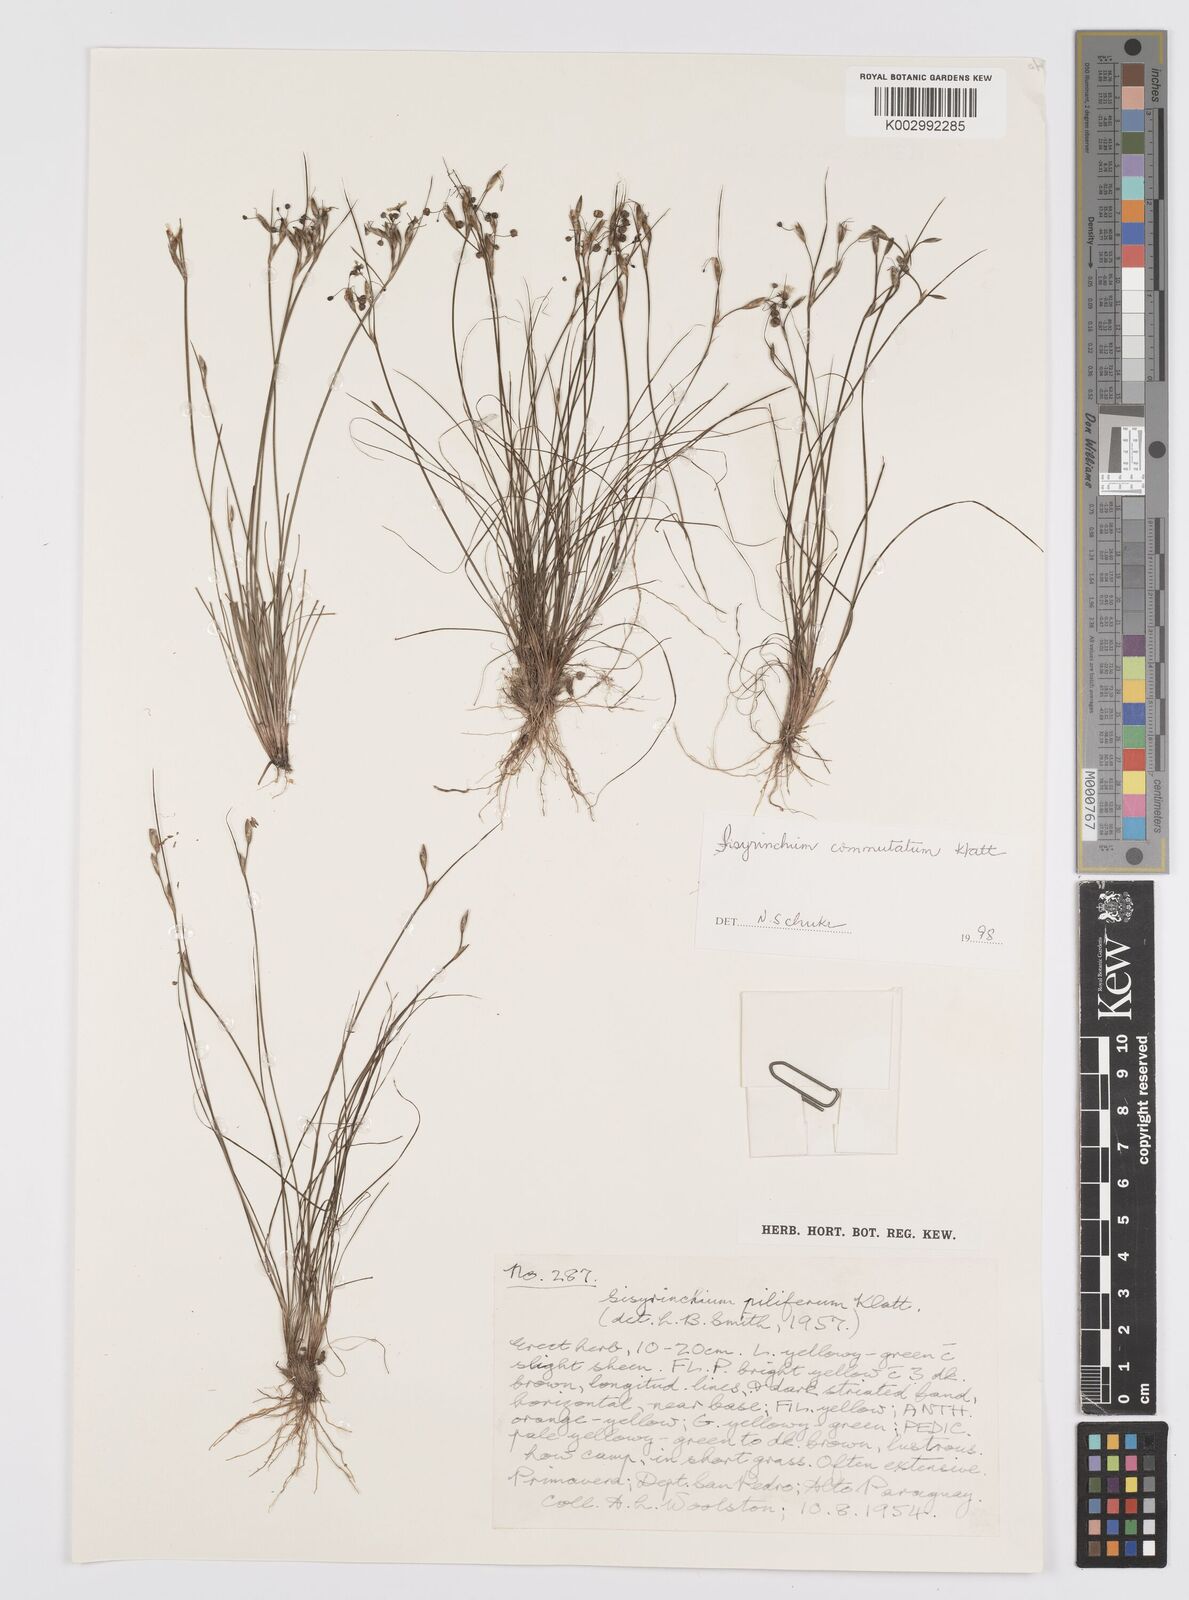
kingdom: Plantae
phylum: Tracheophyta
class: Liliopsida
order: Asparagales
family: Iridaceae
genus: Sisyrinchium
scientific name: Sisyrinchium commutatum
